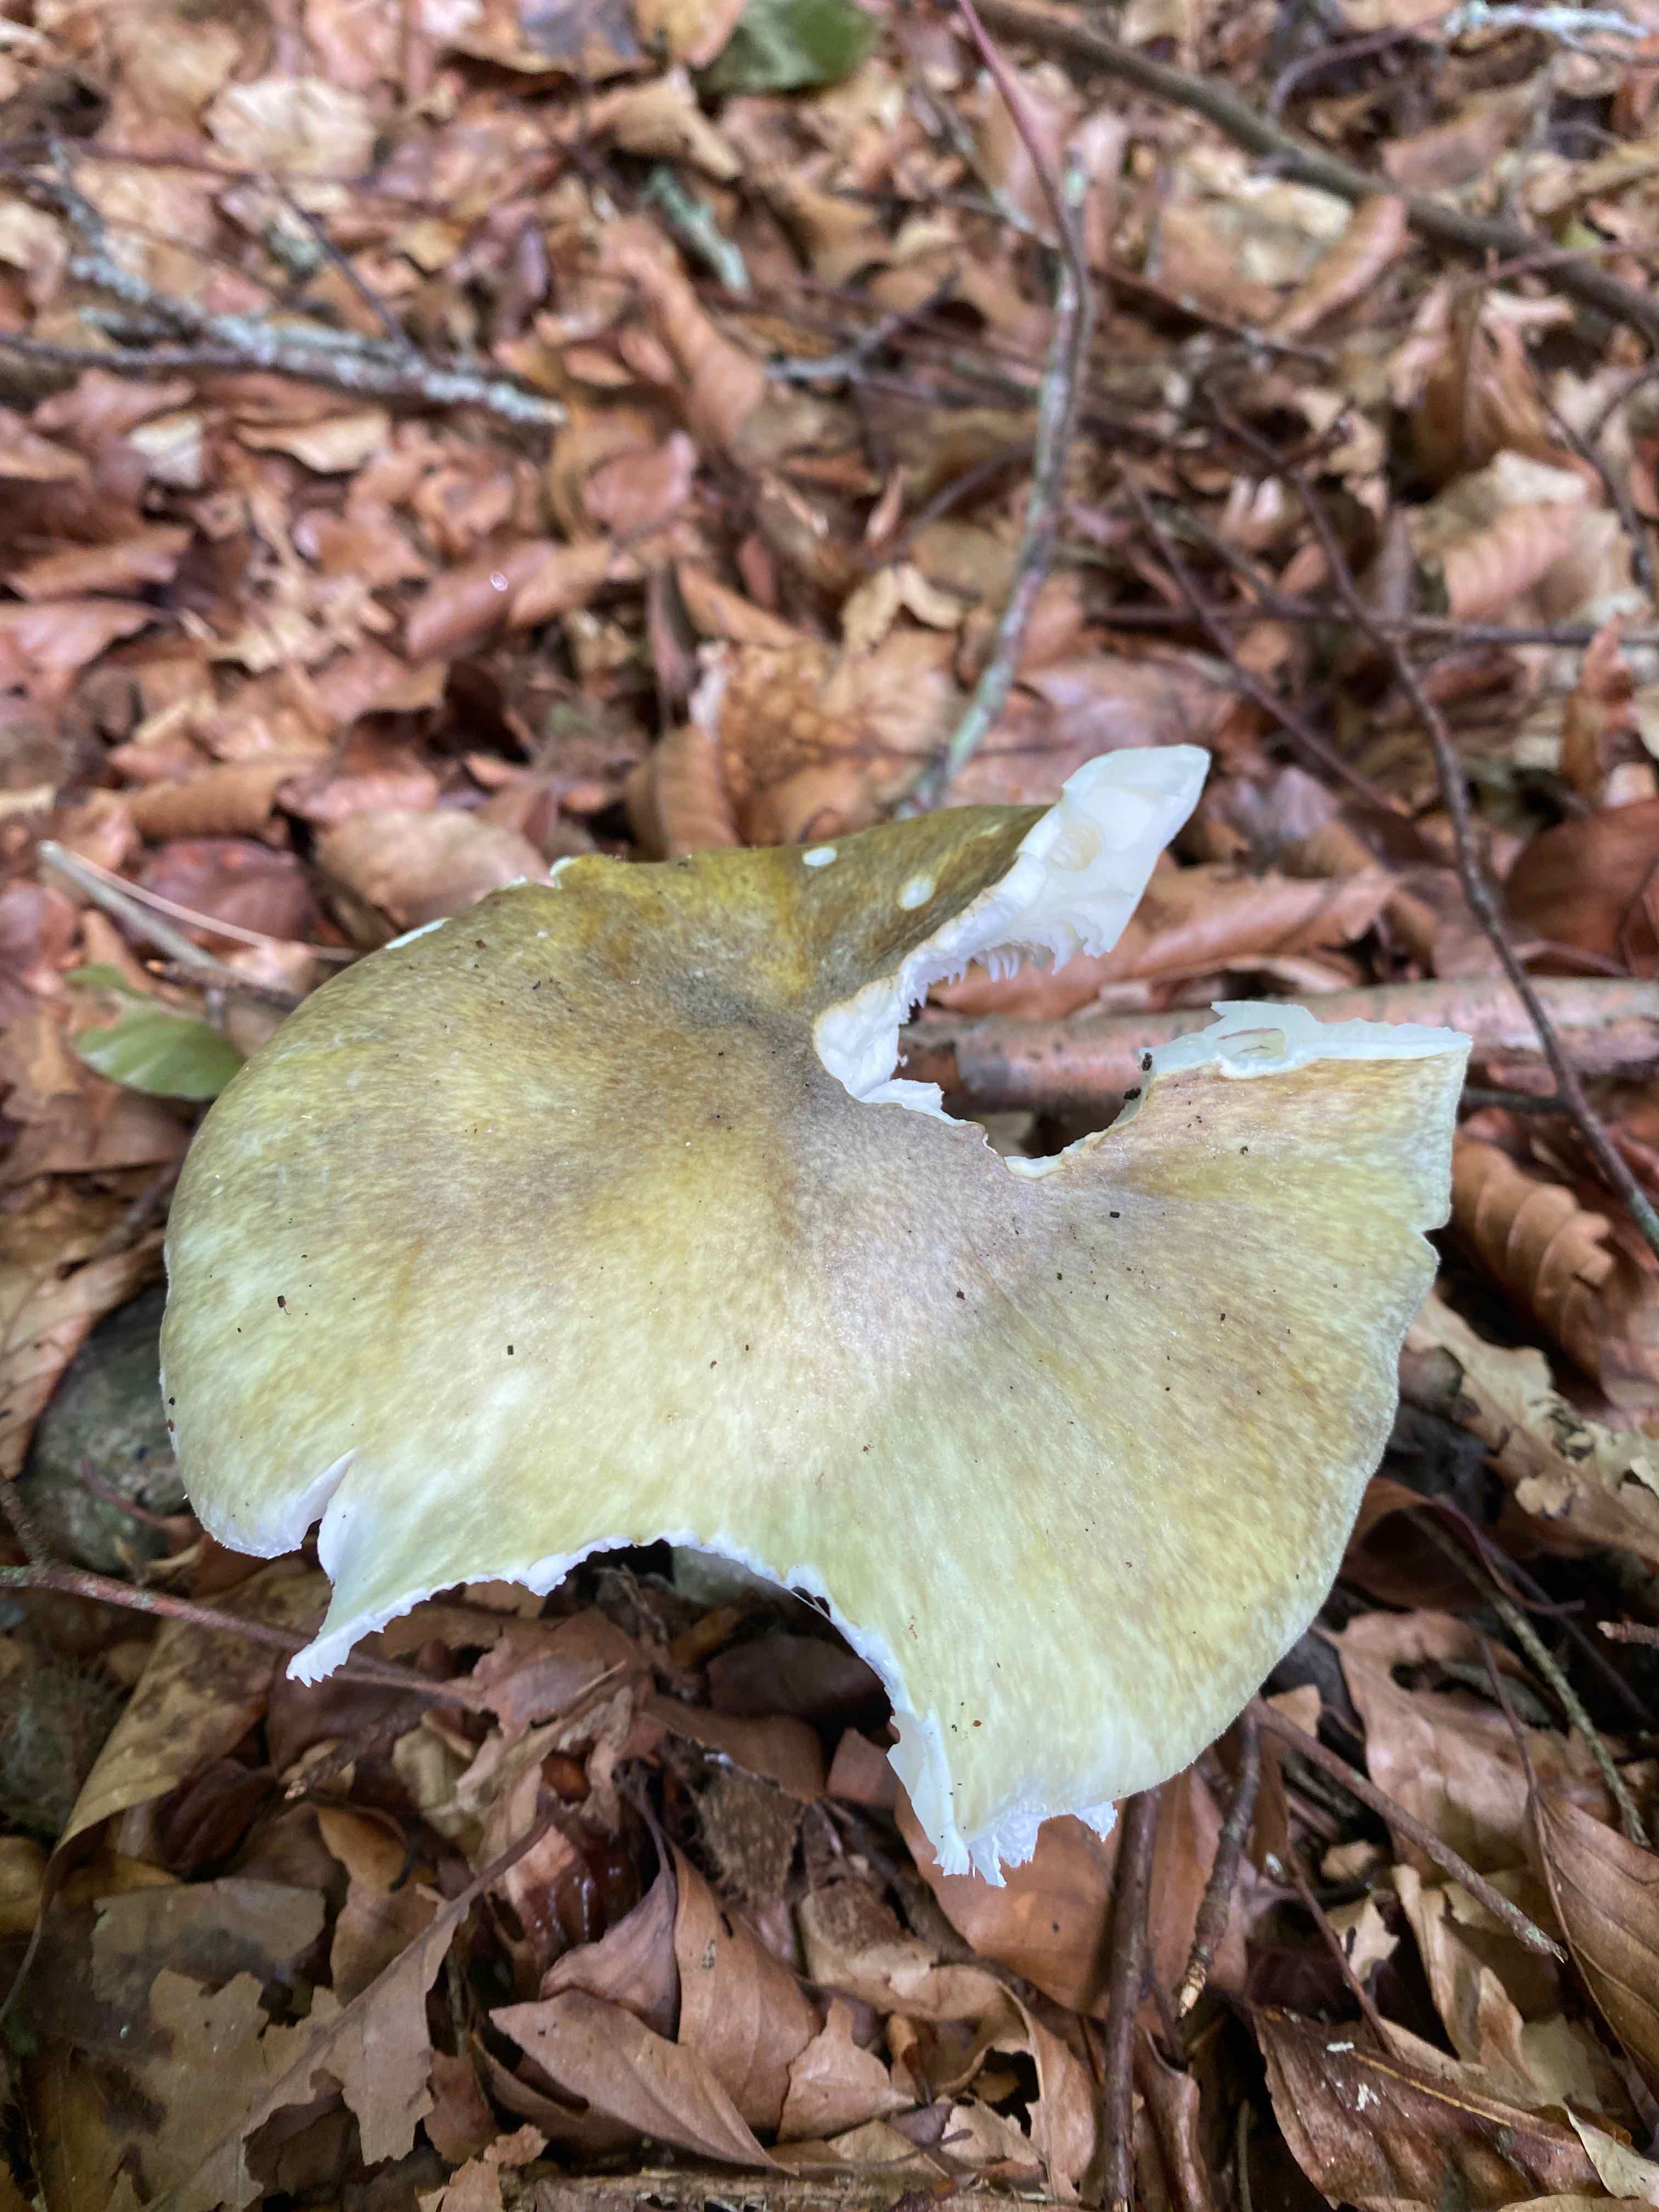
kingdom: Fungi
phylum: Basidiomycota
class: Agaricomycetes
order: Agaricales
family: Amanitaceae
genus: Amanita
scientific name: Amanita phalloides
